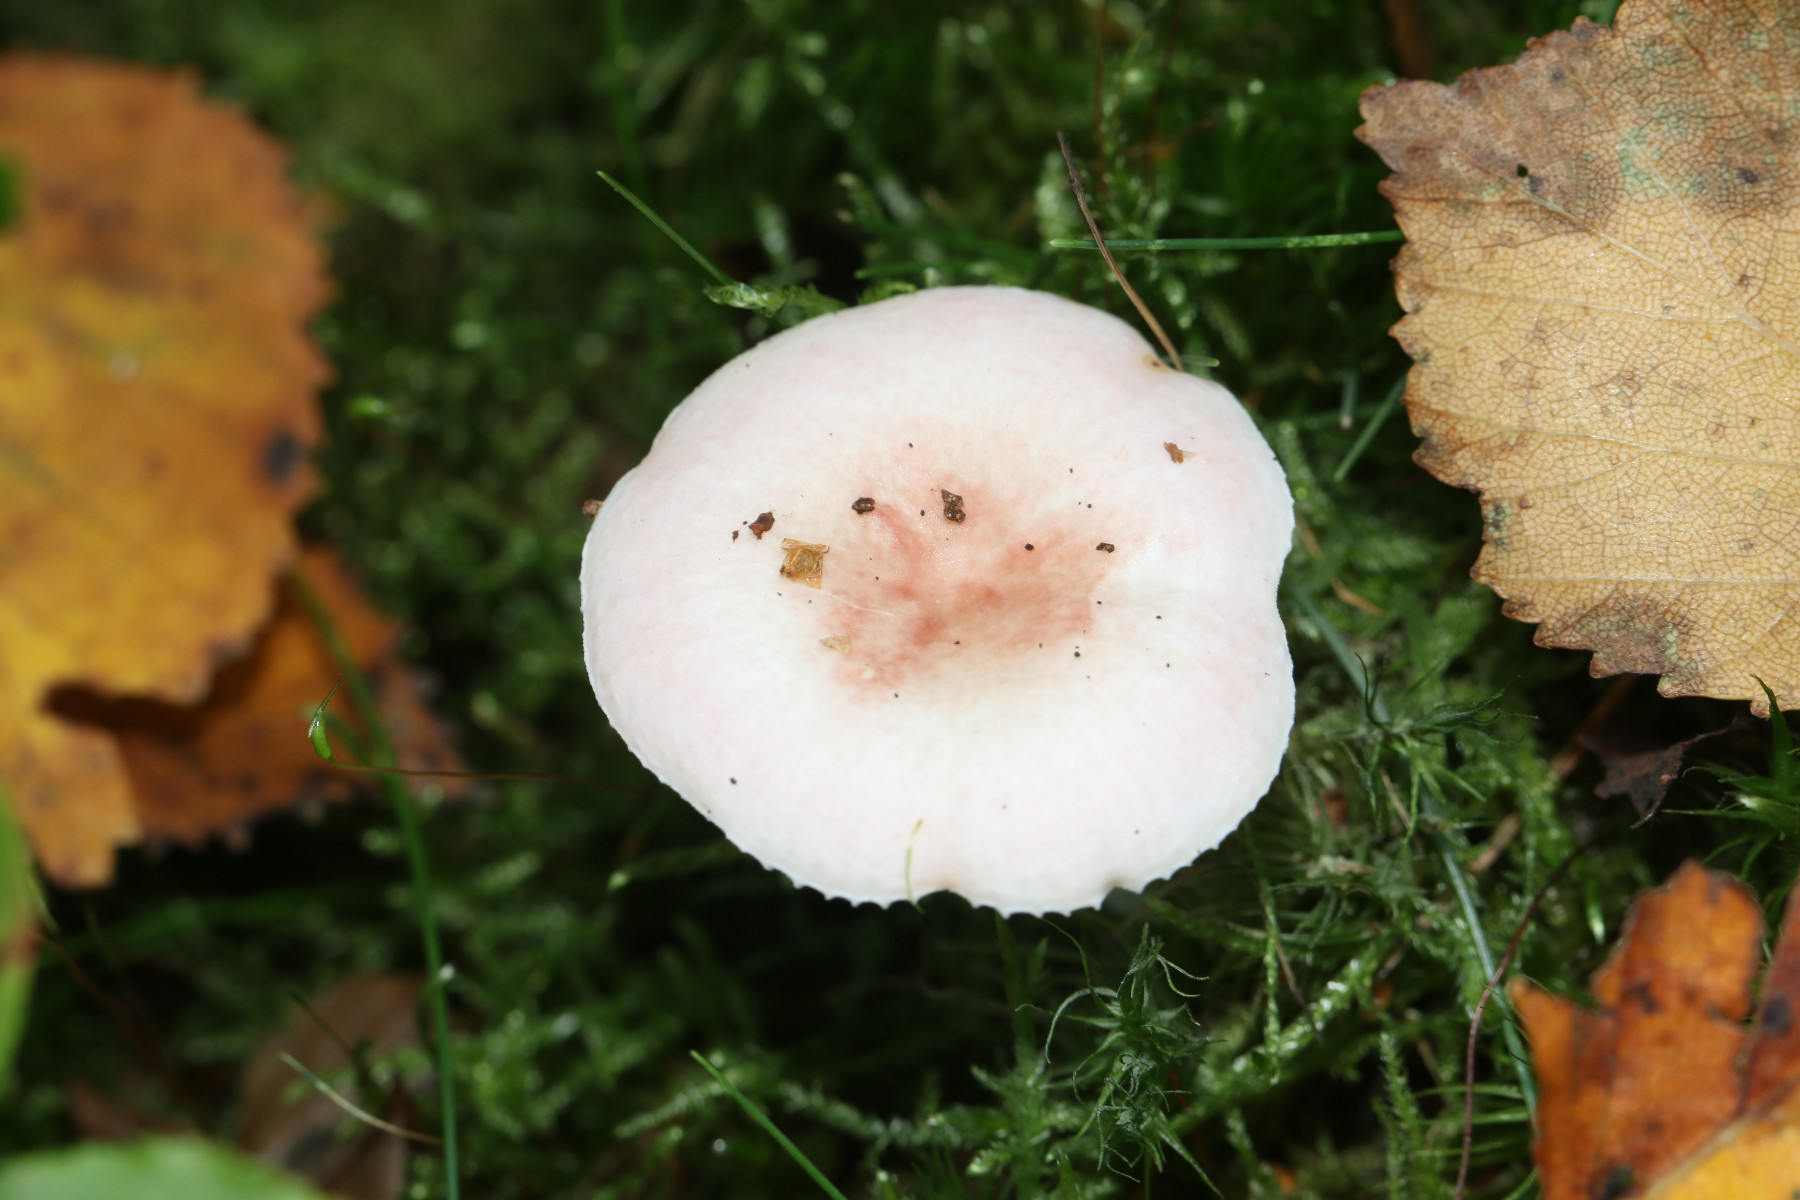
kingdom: Fungi
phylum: Basidiomycota
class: Agaricomycetes
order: Russulales
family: Russulaceae
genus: Russula
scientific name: Russula betularum
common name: bleg gift-skørhat
